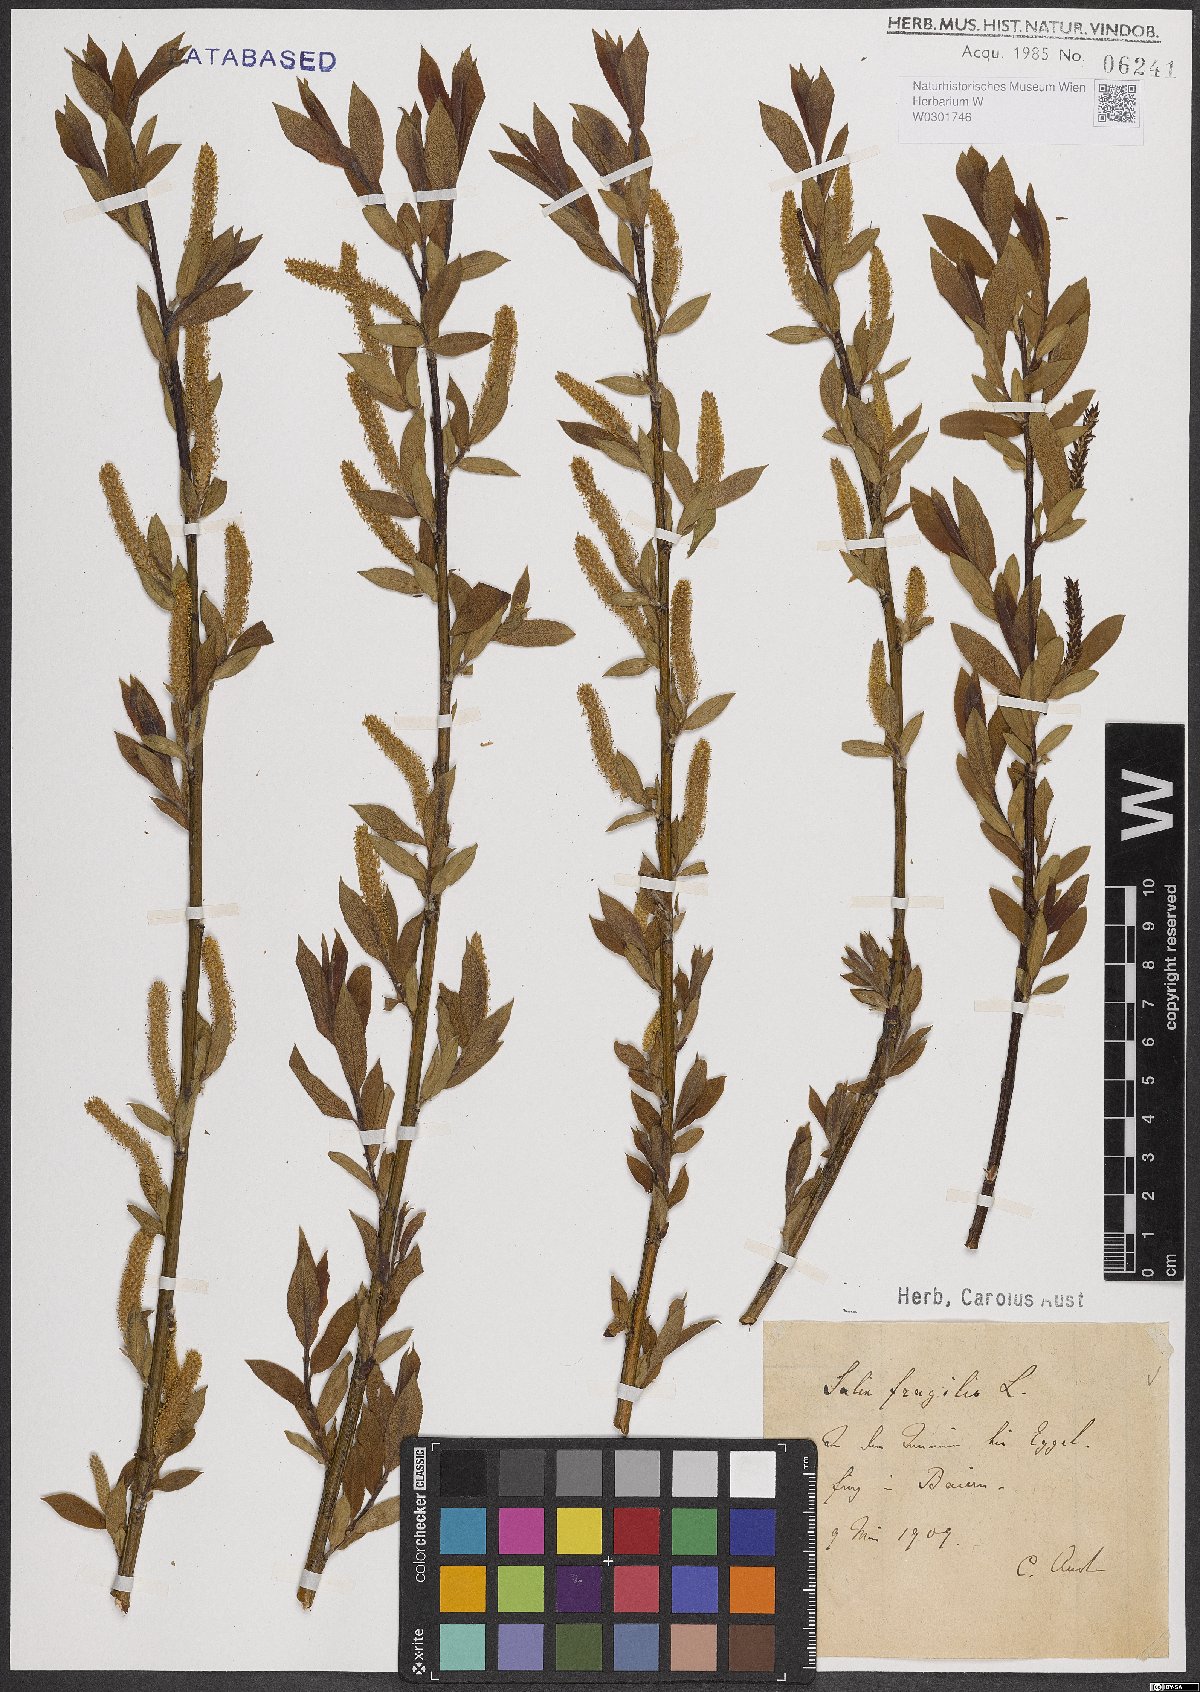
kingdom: Plantae
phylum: Tracheophyta
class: Magnoliopsida
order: Malpighiales
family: Salicaceae
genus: Salix
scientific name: Salix fragilis
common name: Crack willow
